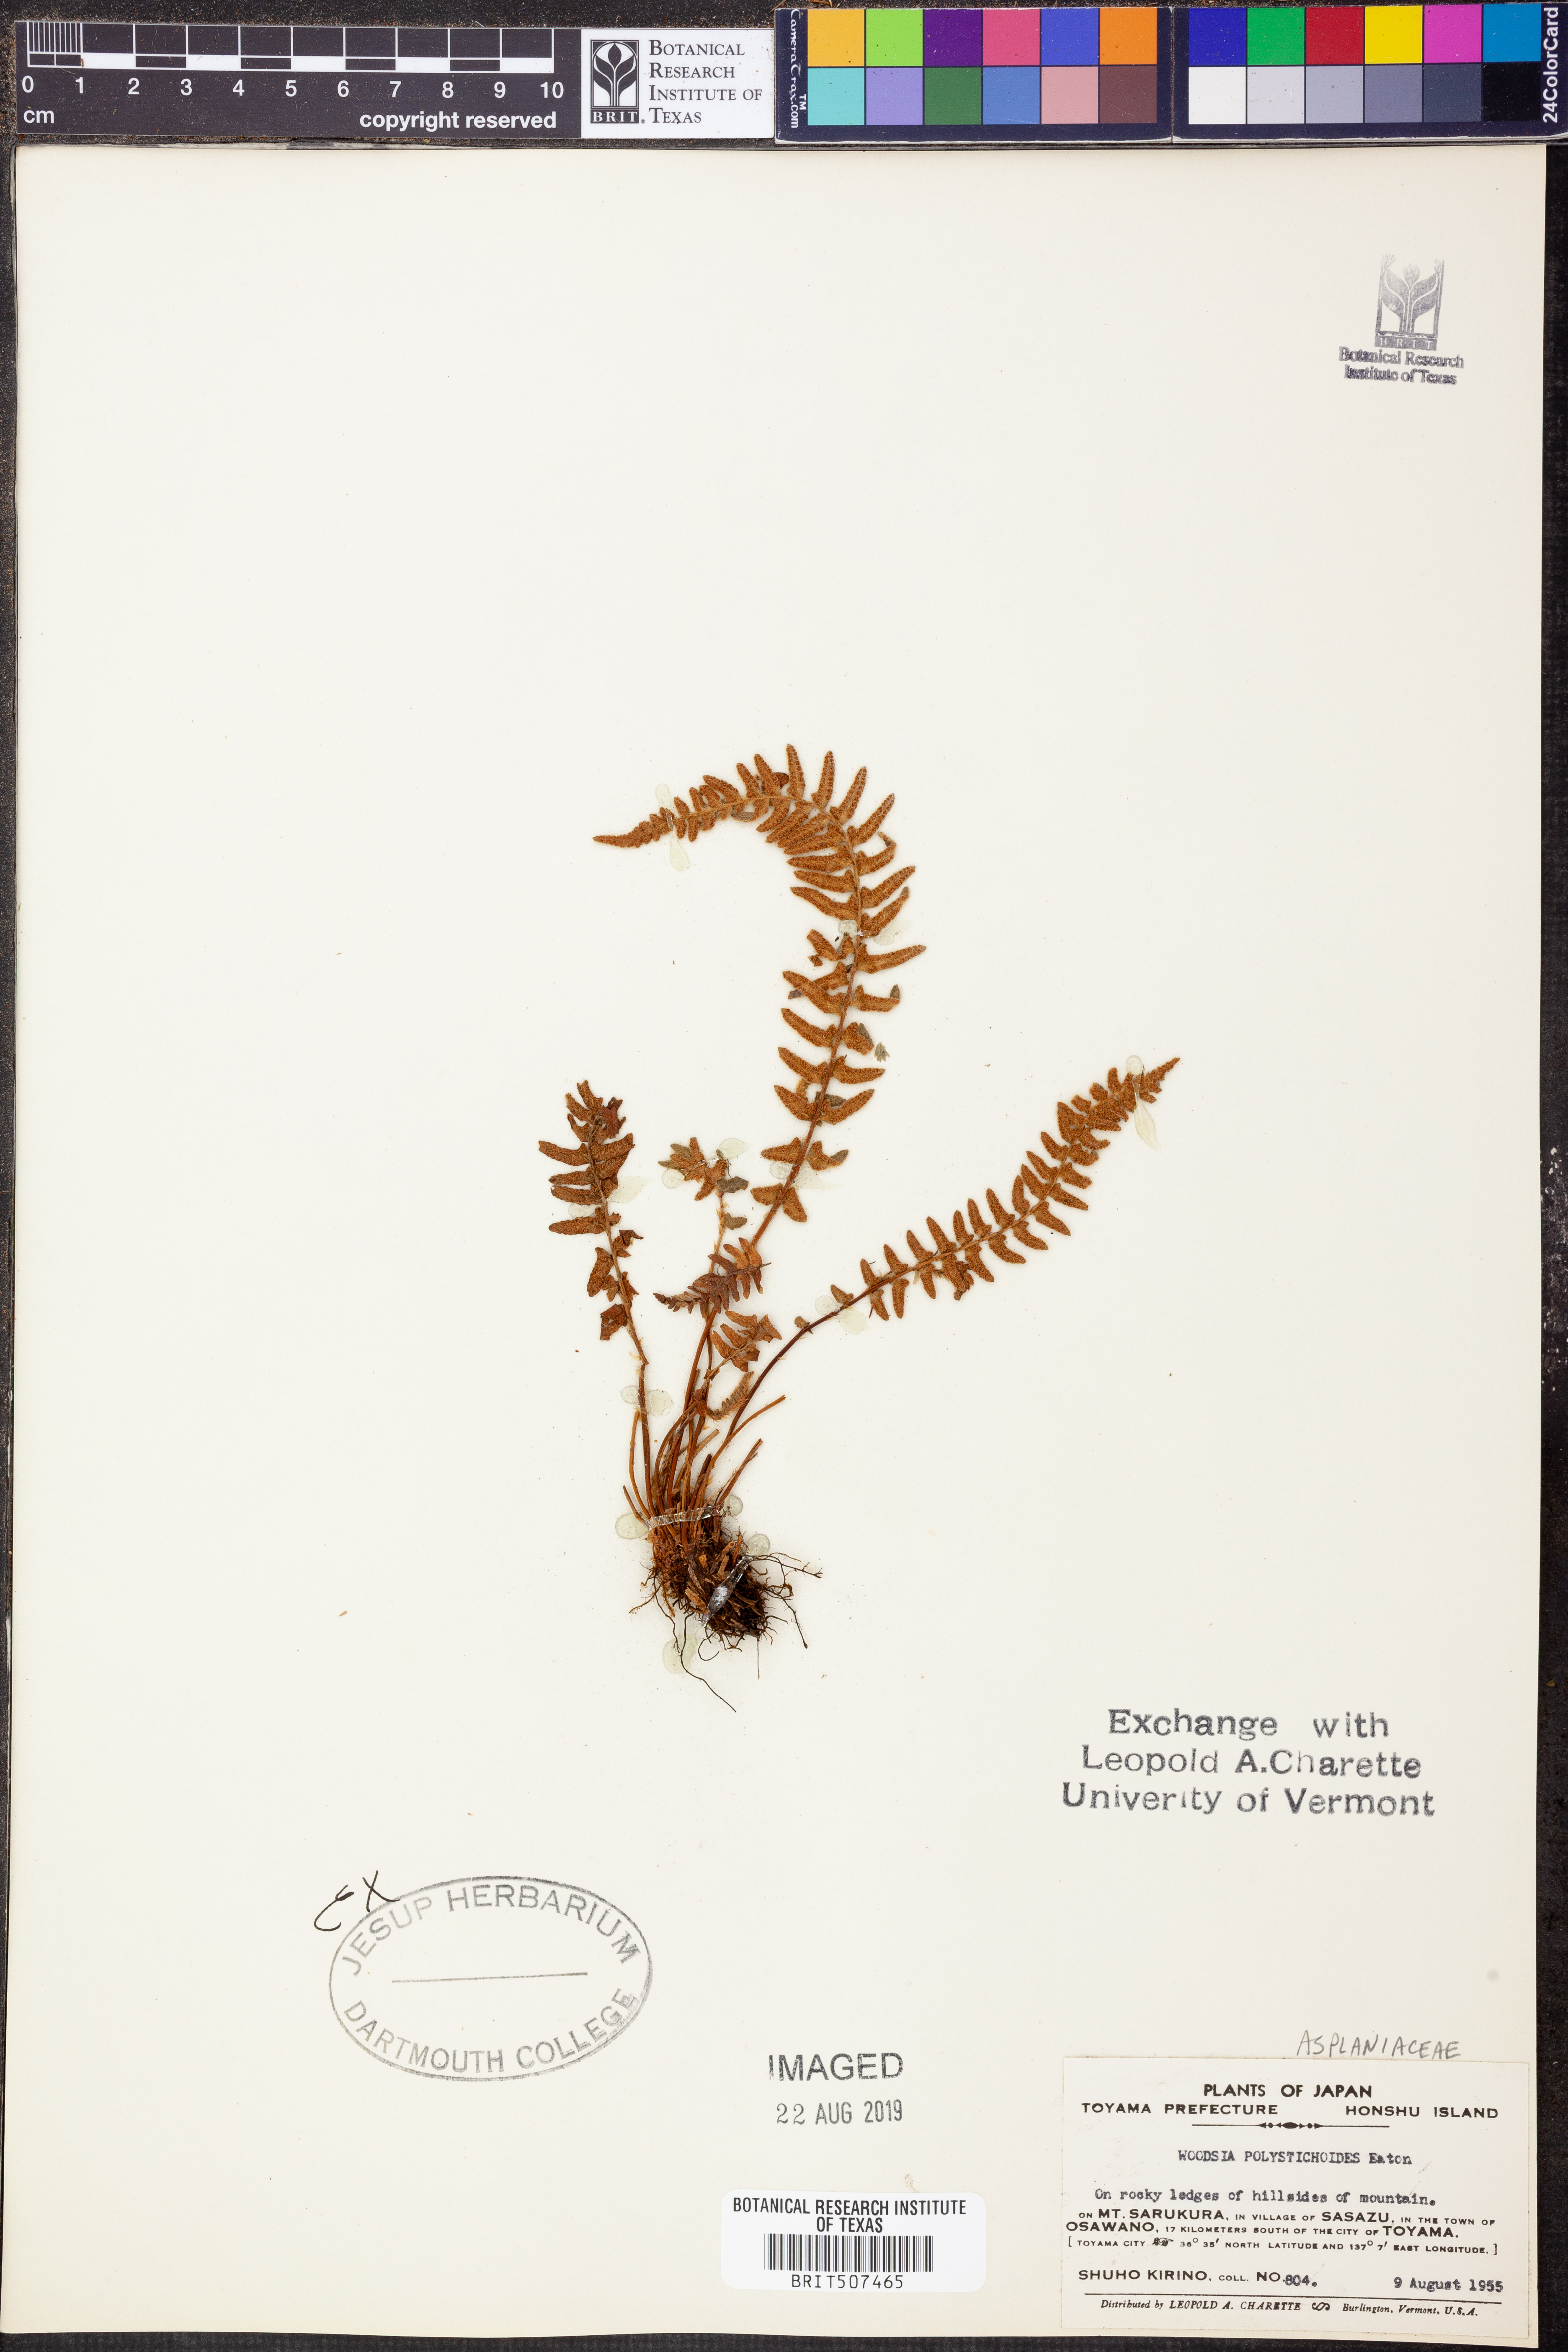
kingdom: Plantae
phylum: Tracheophyta
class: Polypodiopsida
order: Polypodiales
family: Woodsiaceae
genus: Woodsia
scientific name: Woodsia polystichoides
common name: Holly fern woodsia
